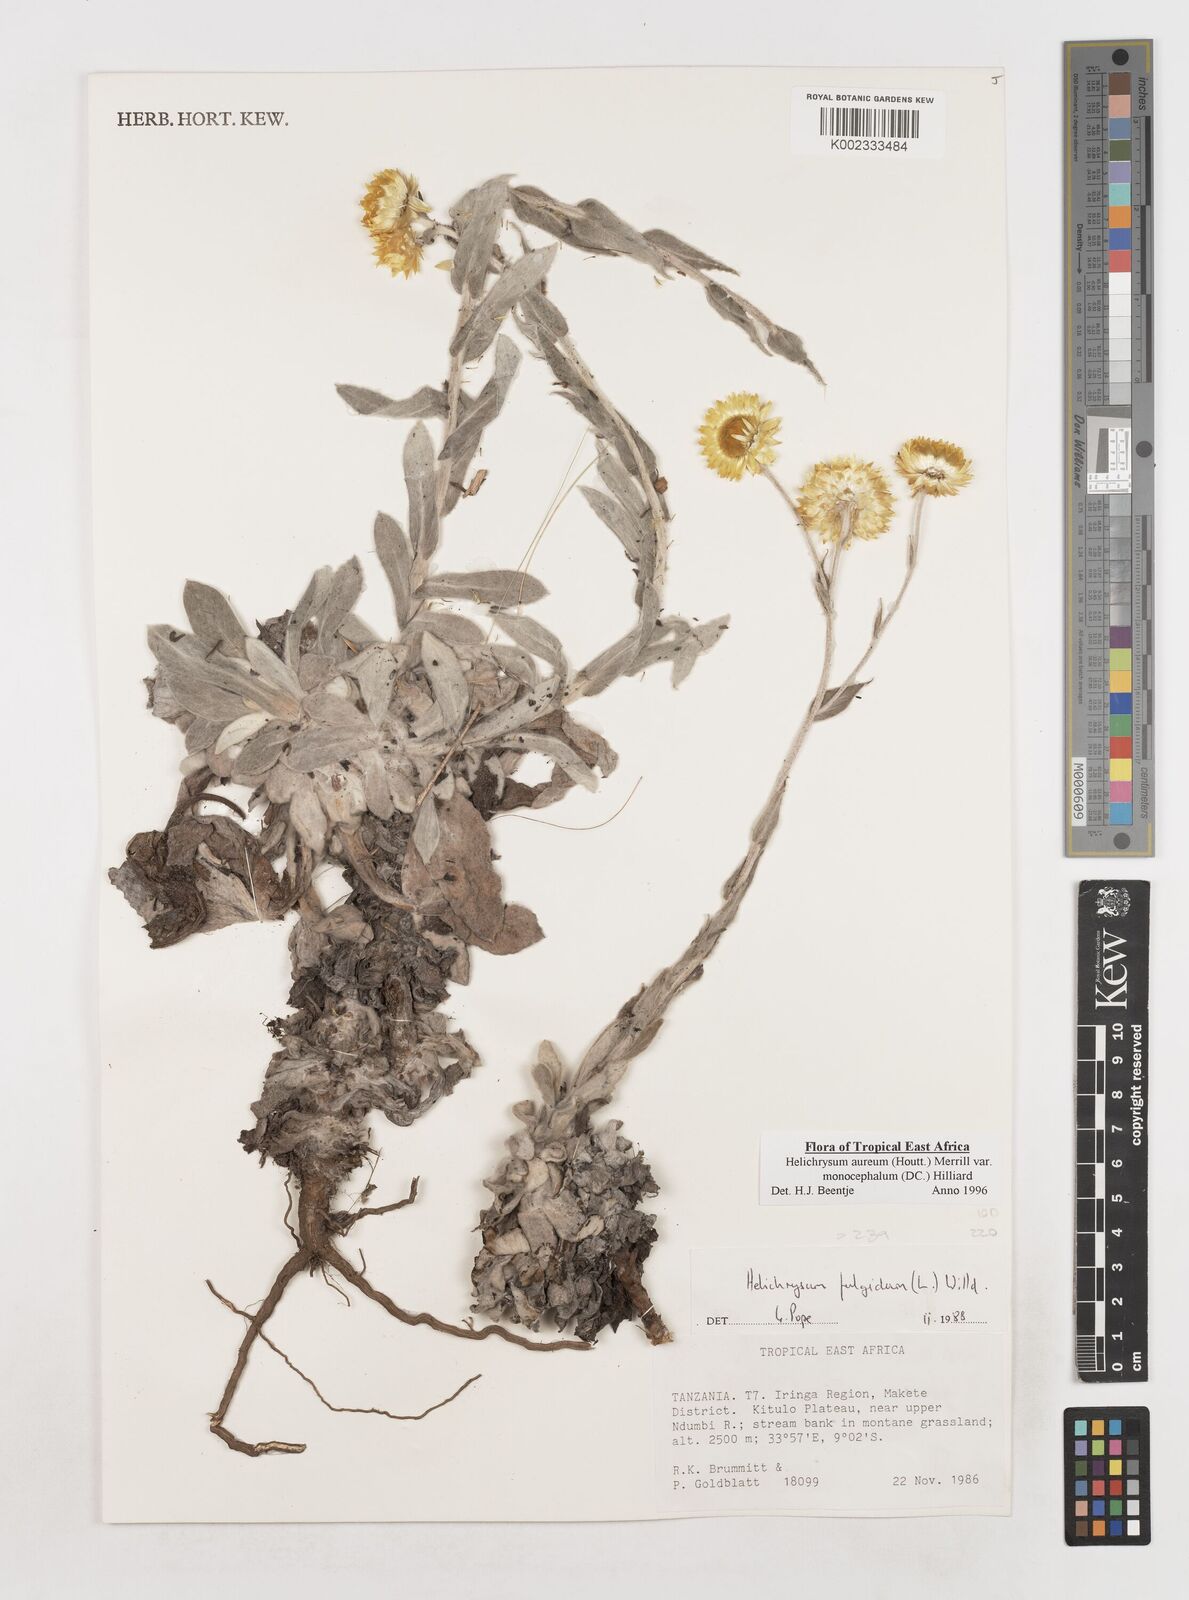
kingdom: Plantae
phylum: Tracheophyta
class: Magnoliopsida
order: Asterales
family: Asteraceae
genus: Helichrysum
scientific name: Helichrysum aureum
